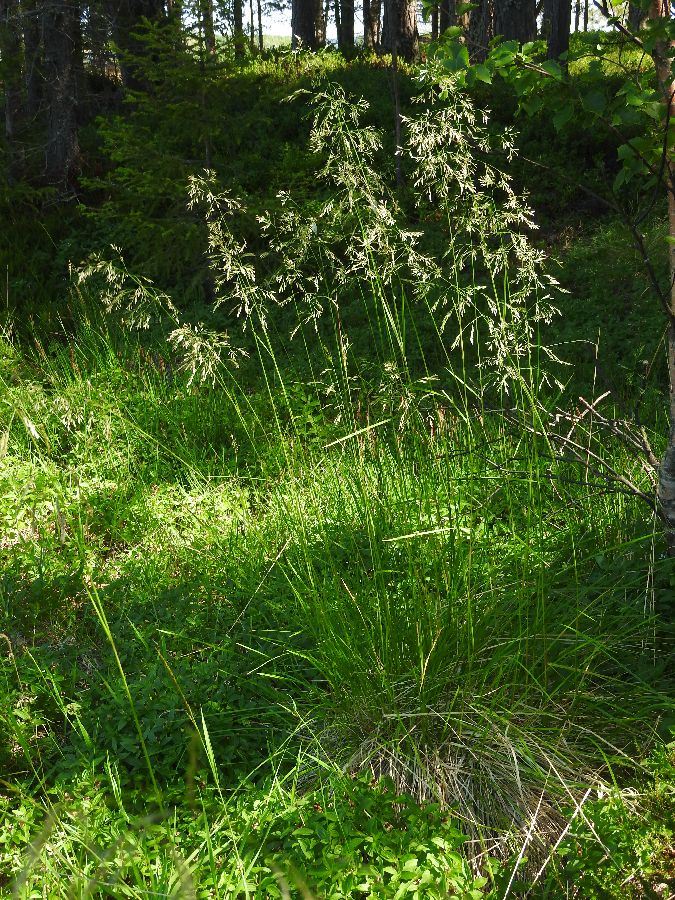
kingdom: Plantae
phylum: Tracheophyta
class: Liliopsida
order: Poales
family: Poaceae
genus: Deschampsia
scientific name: Deschampsia cespitosa
